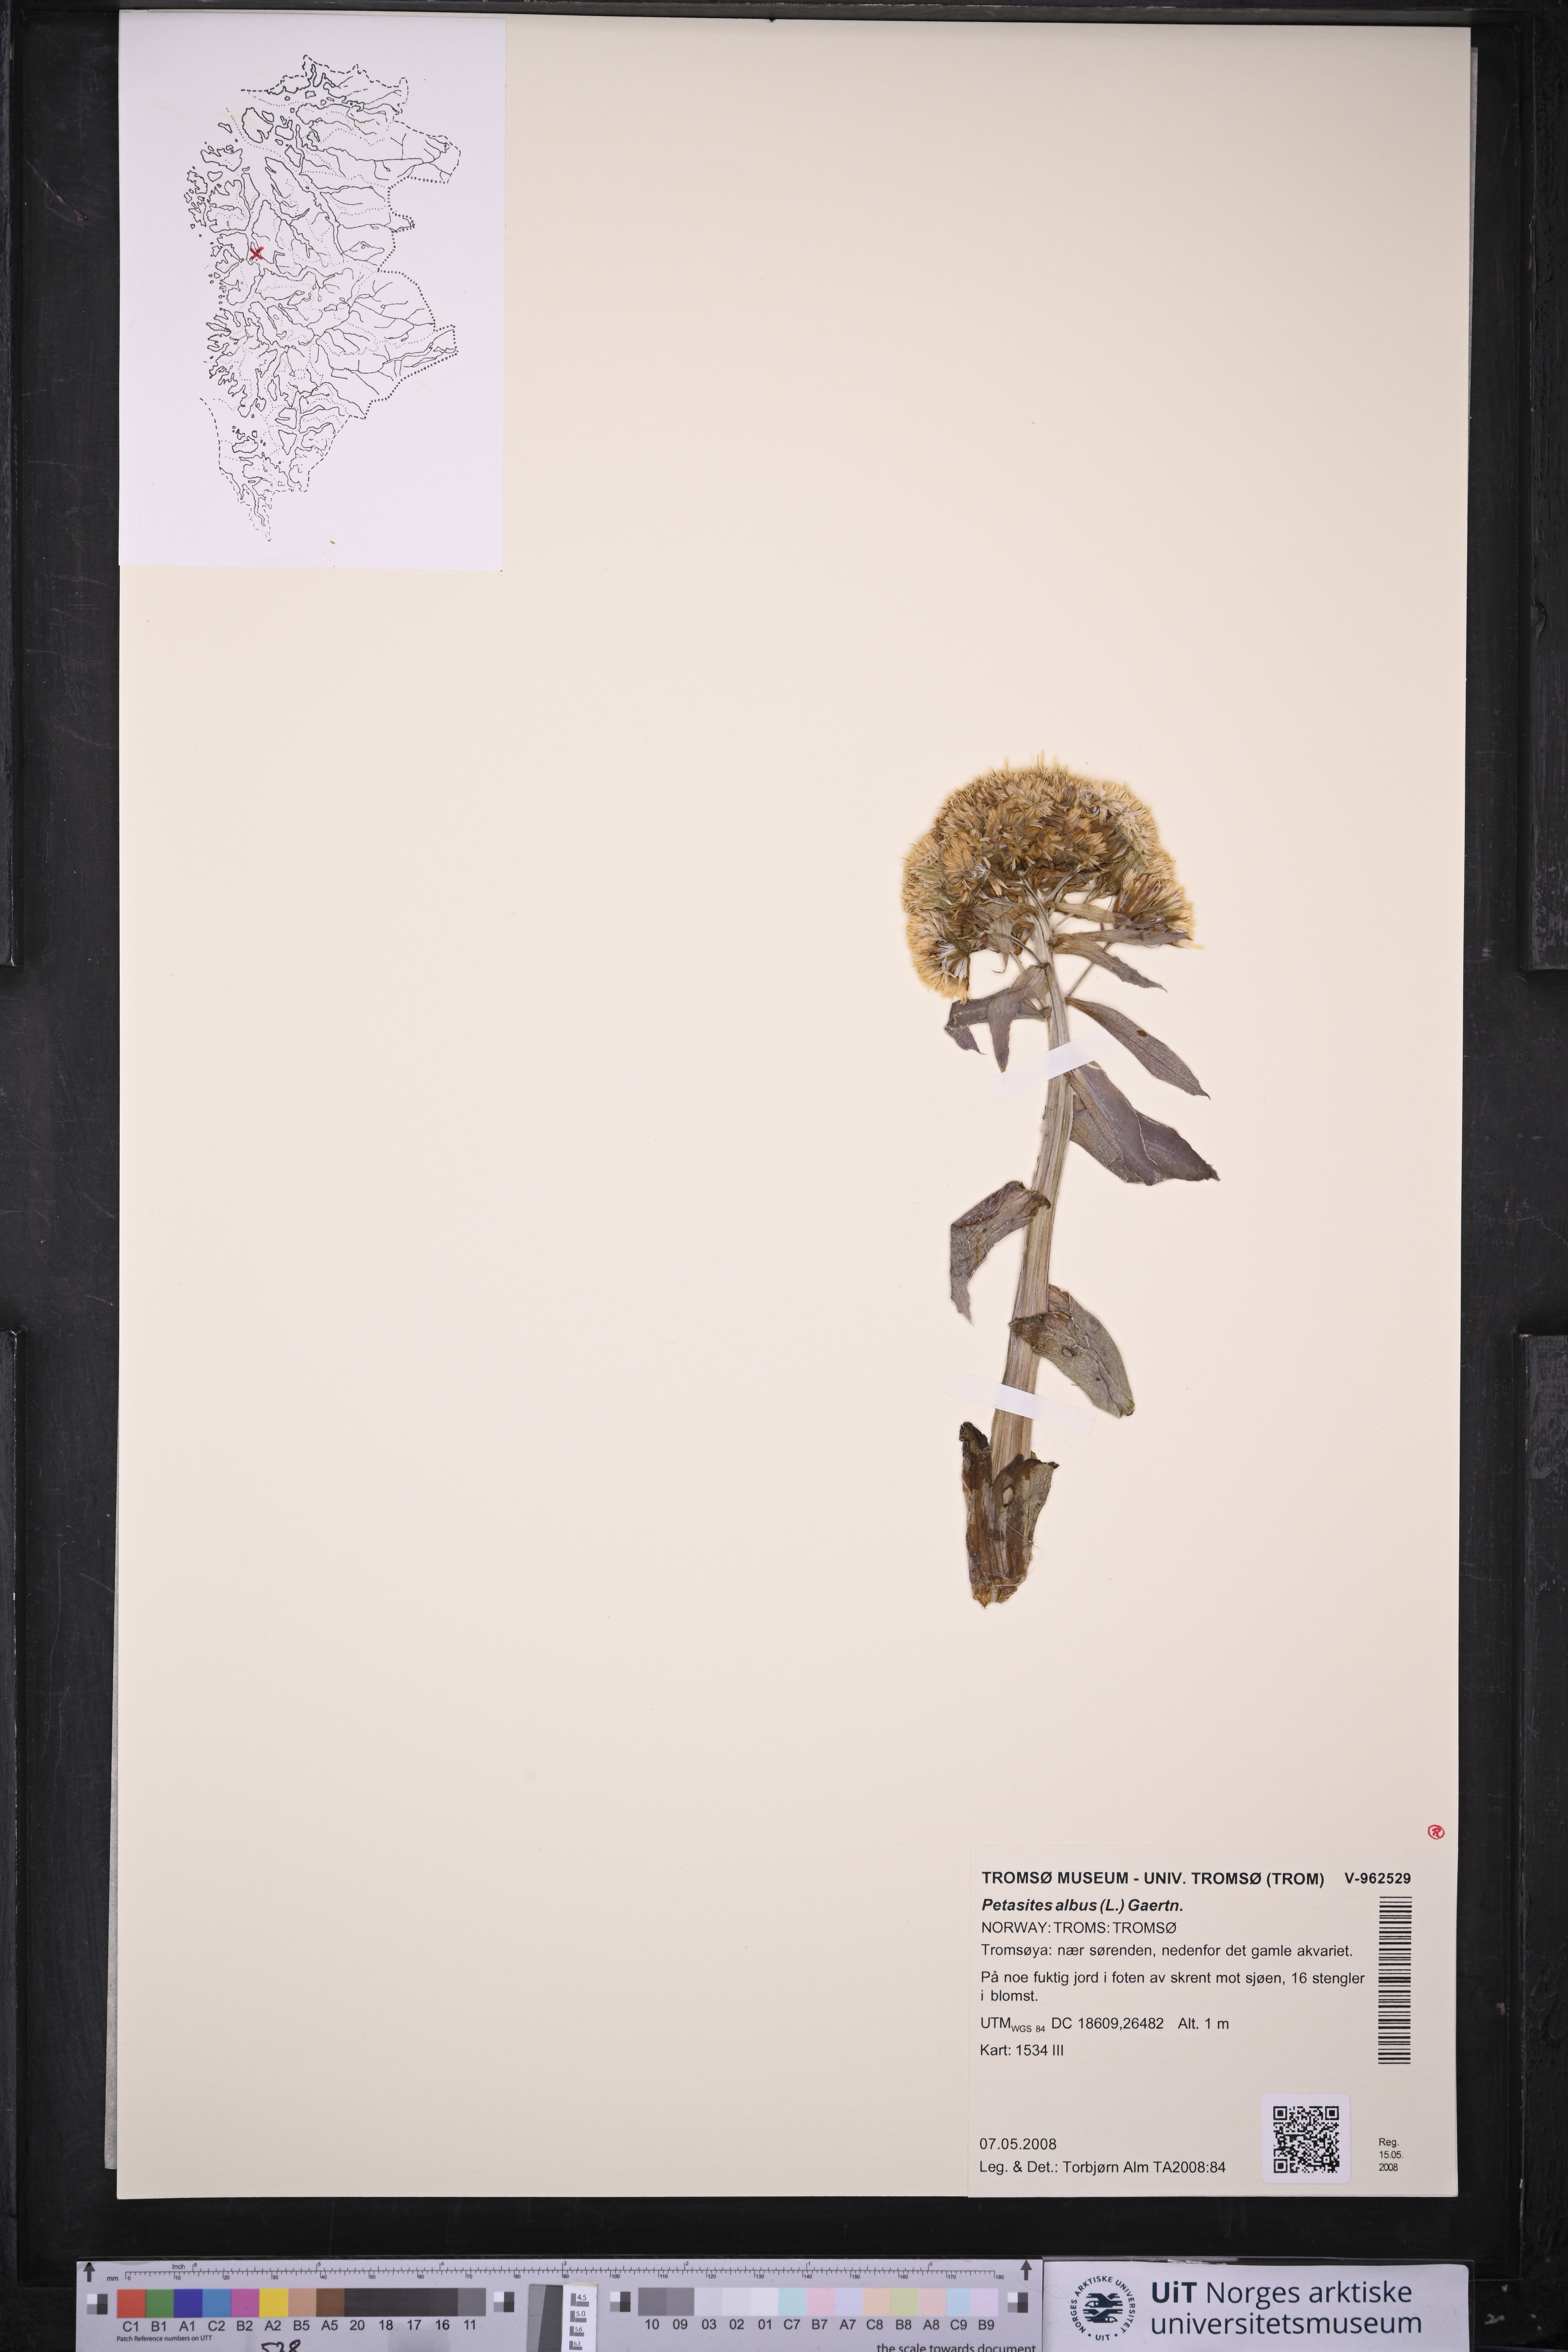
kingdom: Plantae
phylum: Tracheophyta
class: Magnoliopsida
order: Asterales
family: Asteraceae
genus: Petasites
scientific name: Petasites albus
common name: White butterbur
